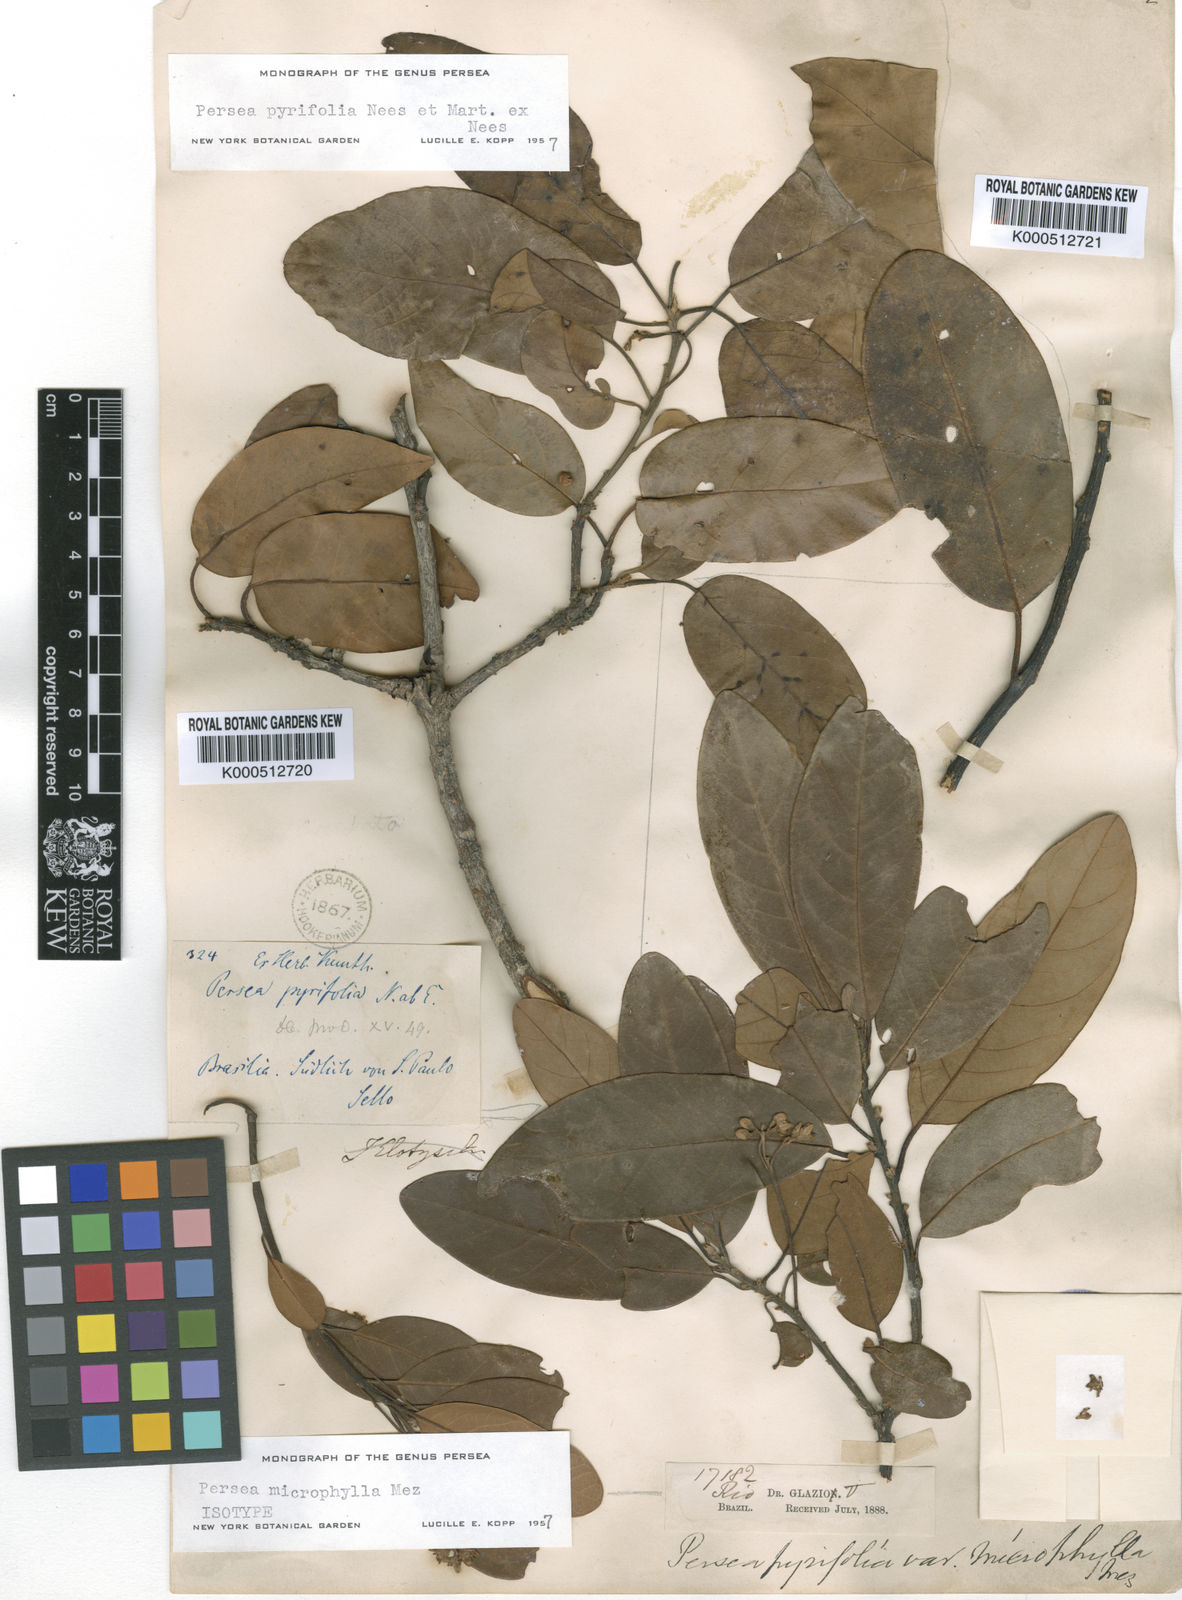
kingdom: Plantae
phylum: Tracheophyta
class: Magnoliopsida
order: Laurales
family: Lauraceae
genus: Persea
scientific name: Persea
